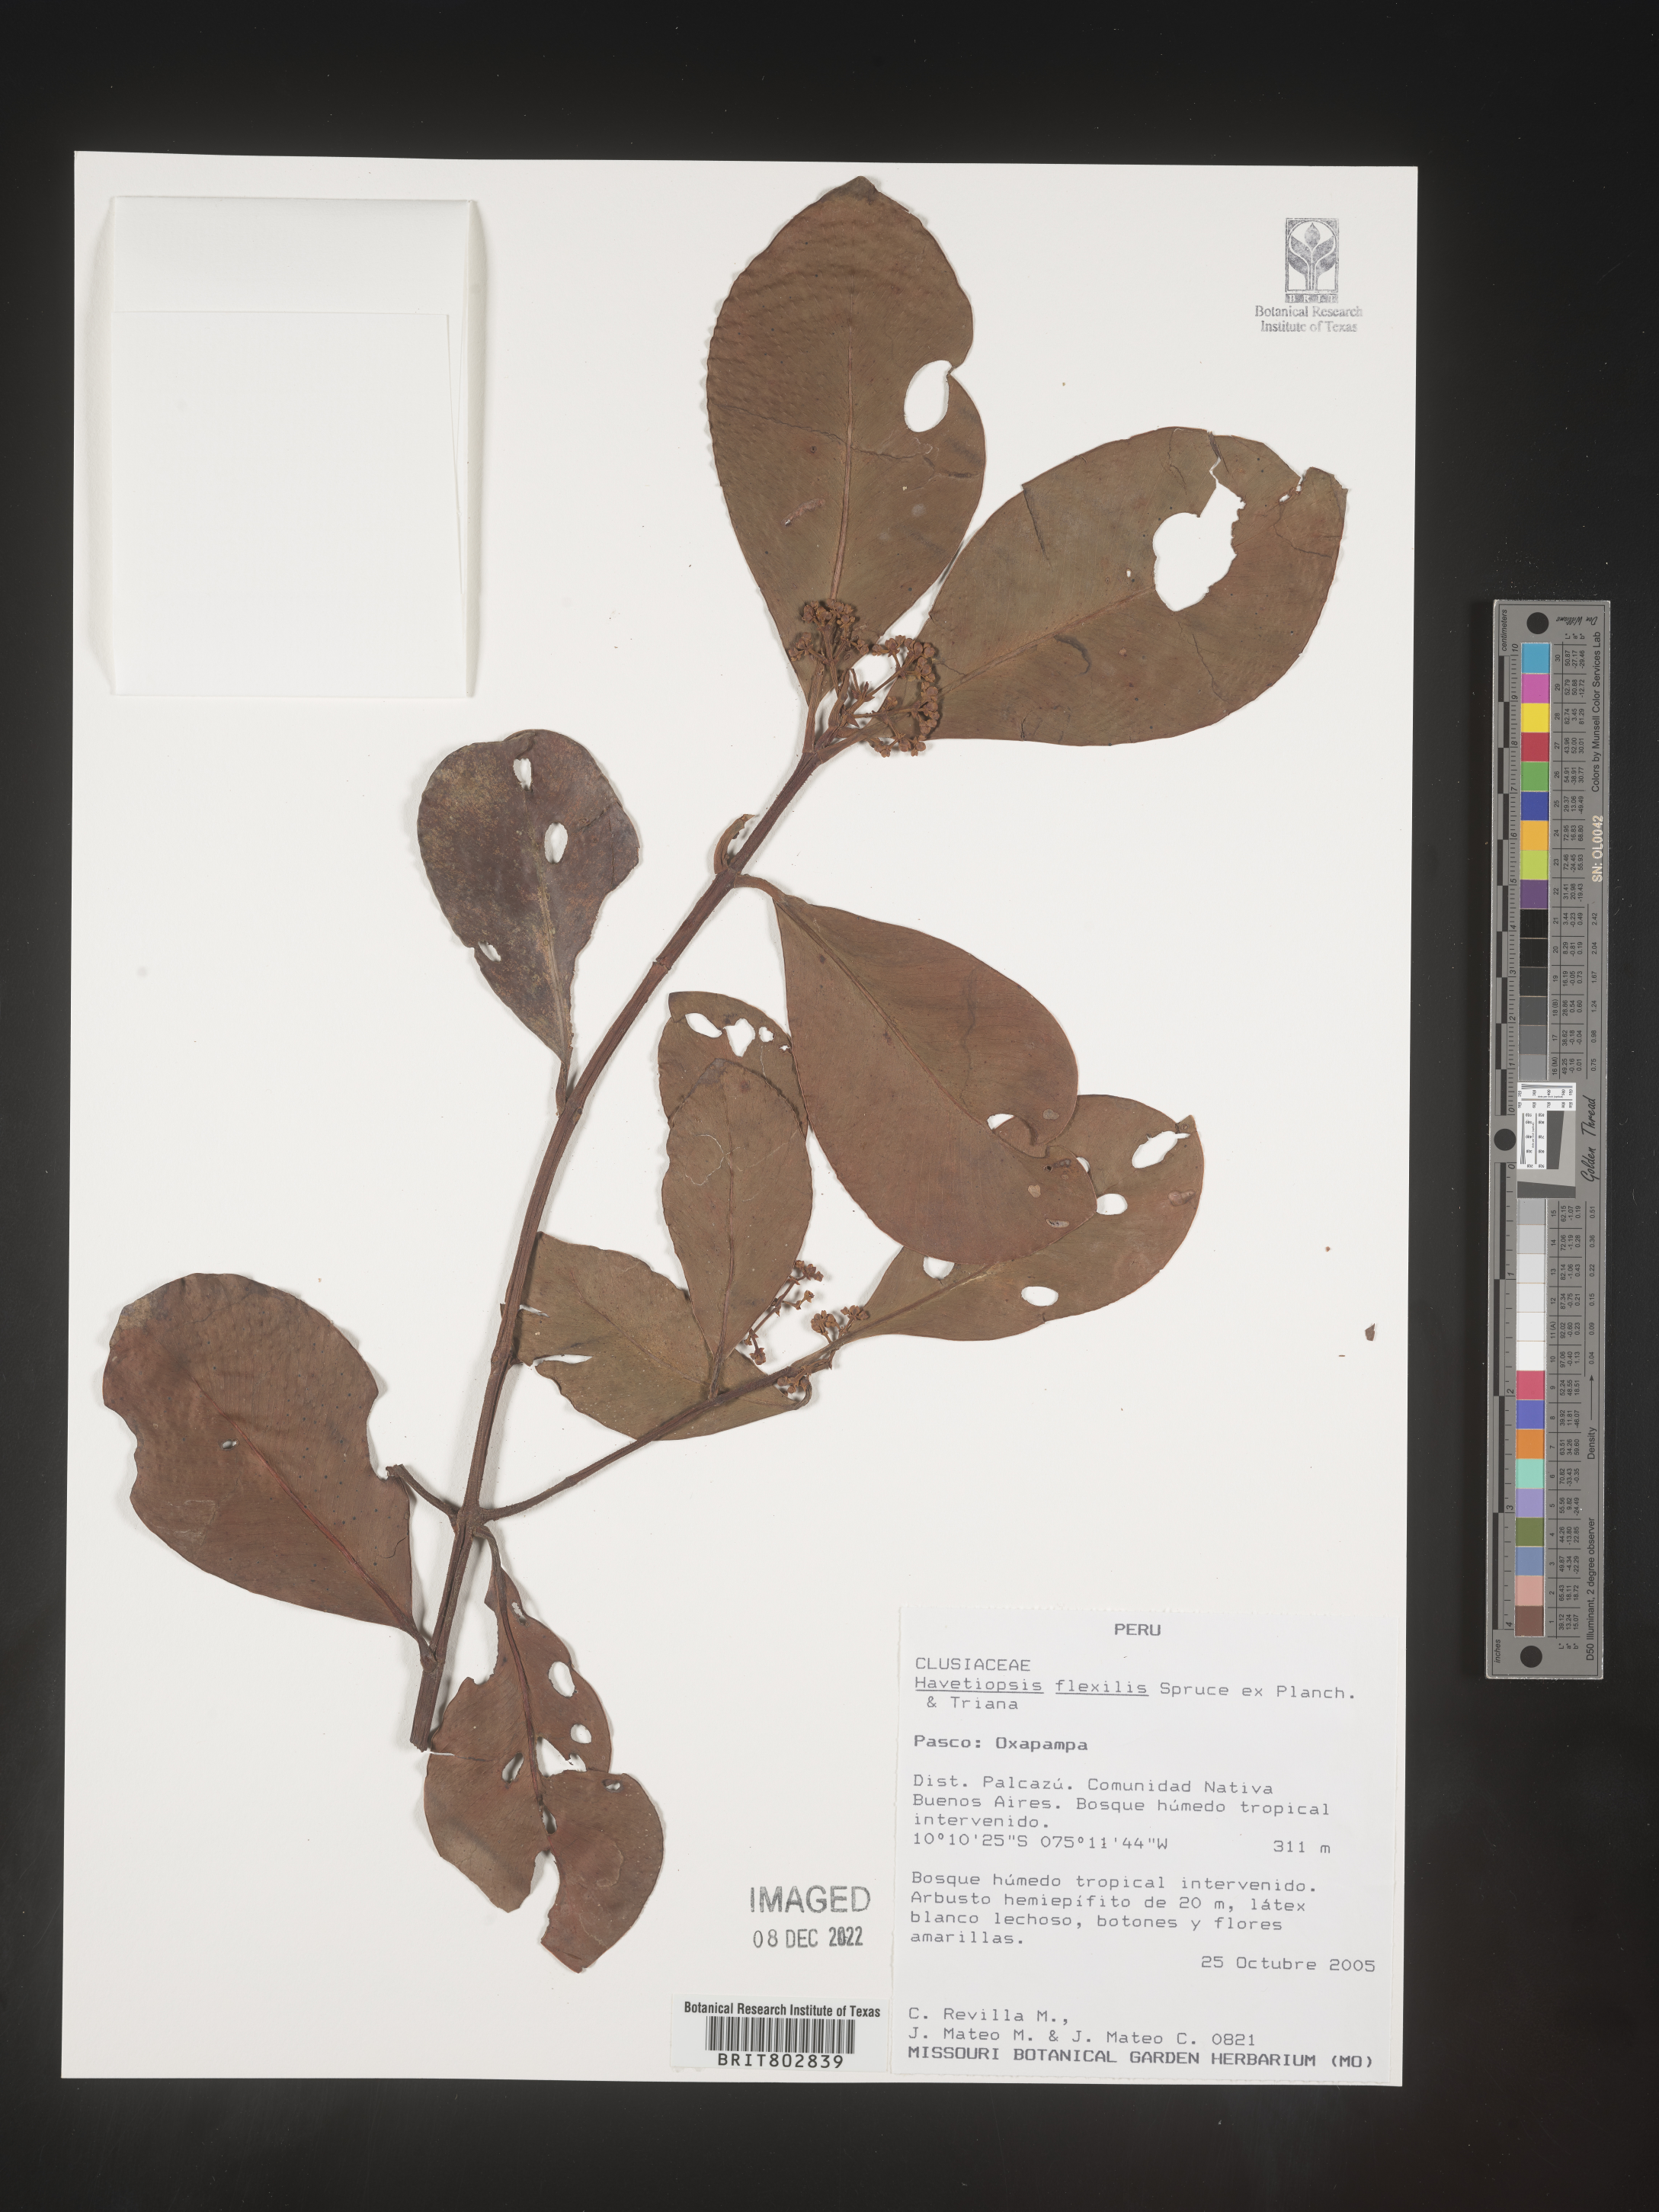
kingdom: Plantae
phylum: Tracheophyta
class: Magnoliopsida
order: Malpighiales
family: Clusiaceae
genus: Havetiopsis
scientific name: Havetiopsis
